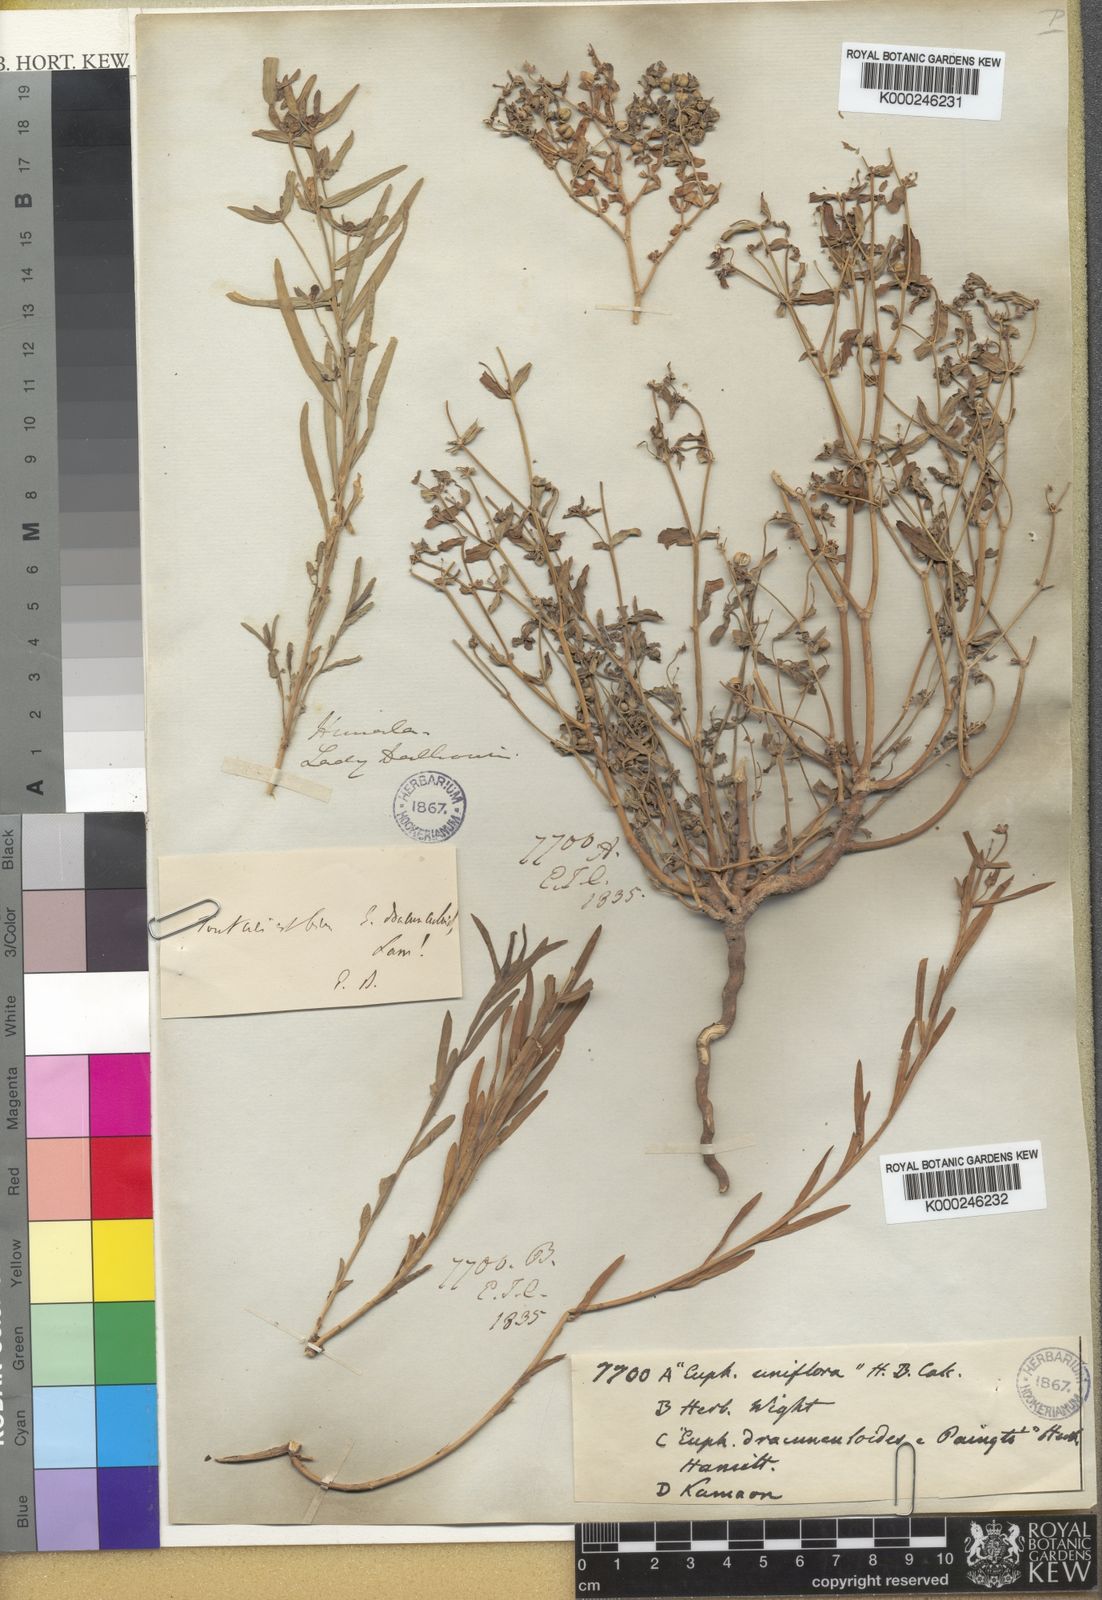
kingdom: Plantae
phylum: Tracheophyta
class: Magnoliopsida
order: Malpighiales
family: Euphorbiaceae
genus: Euphorbia
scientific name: Euphorbia dracunculoides
